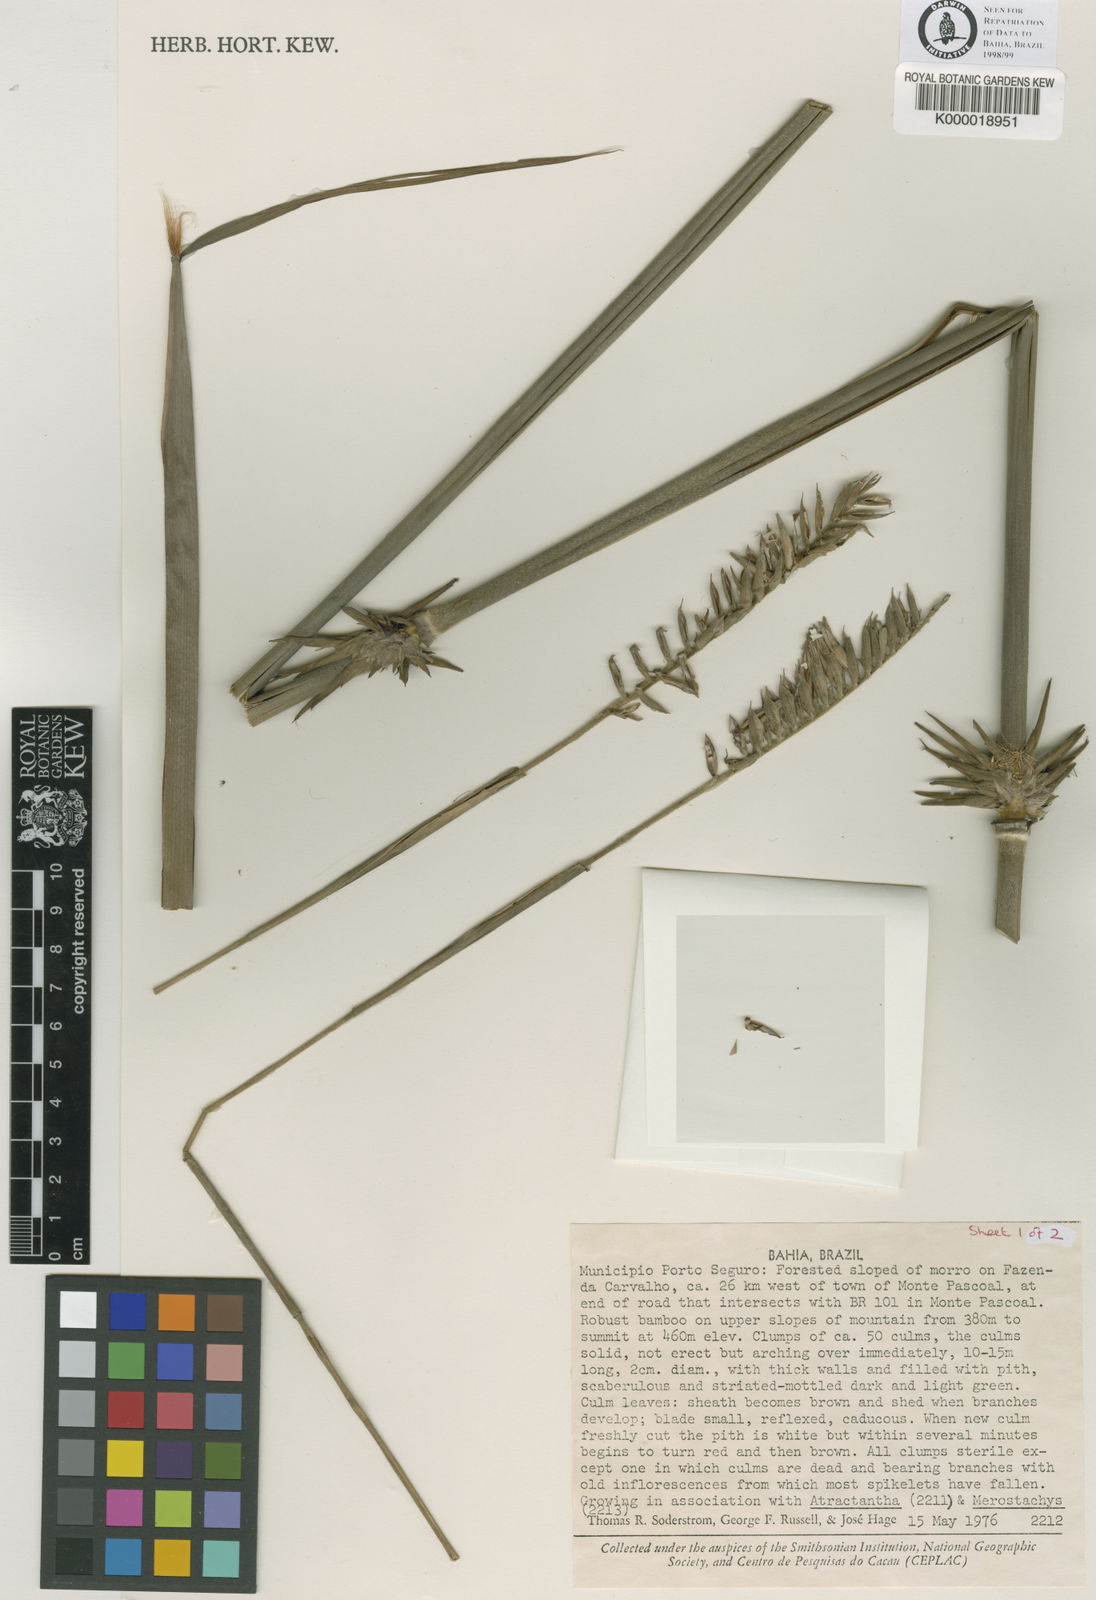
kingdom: Plantae
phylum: Tracheophyta
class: Liliopsida
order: Poales
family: Poaceae
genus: Merostachys
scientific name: Merostachys medullosa
